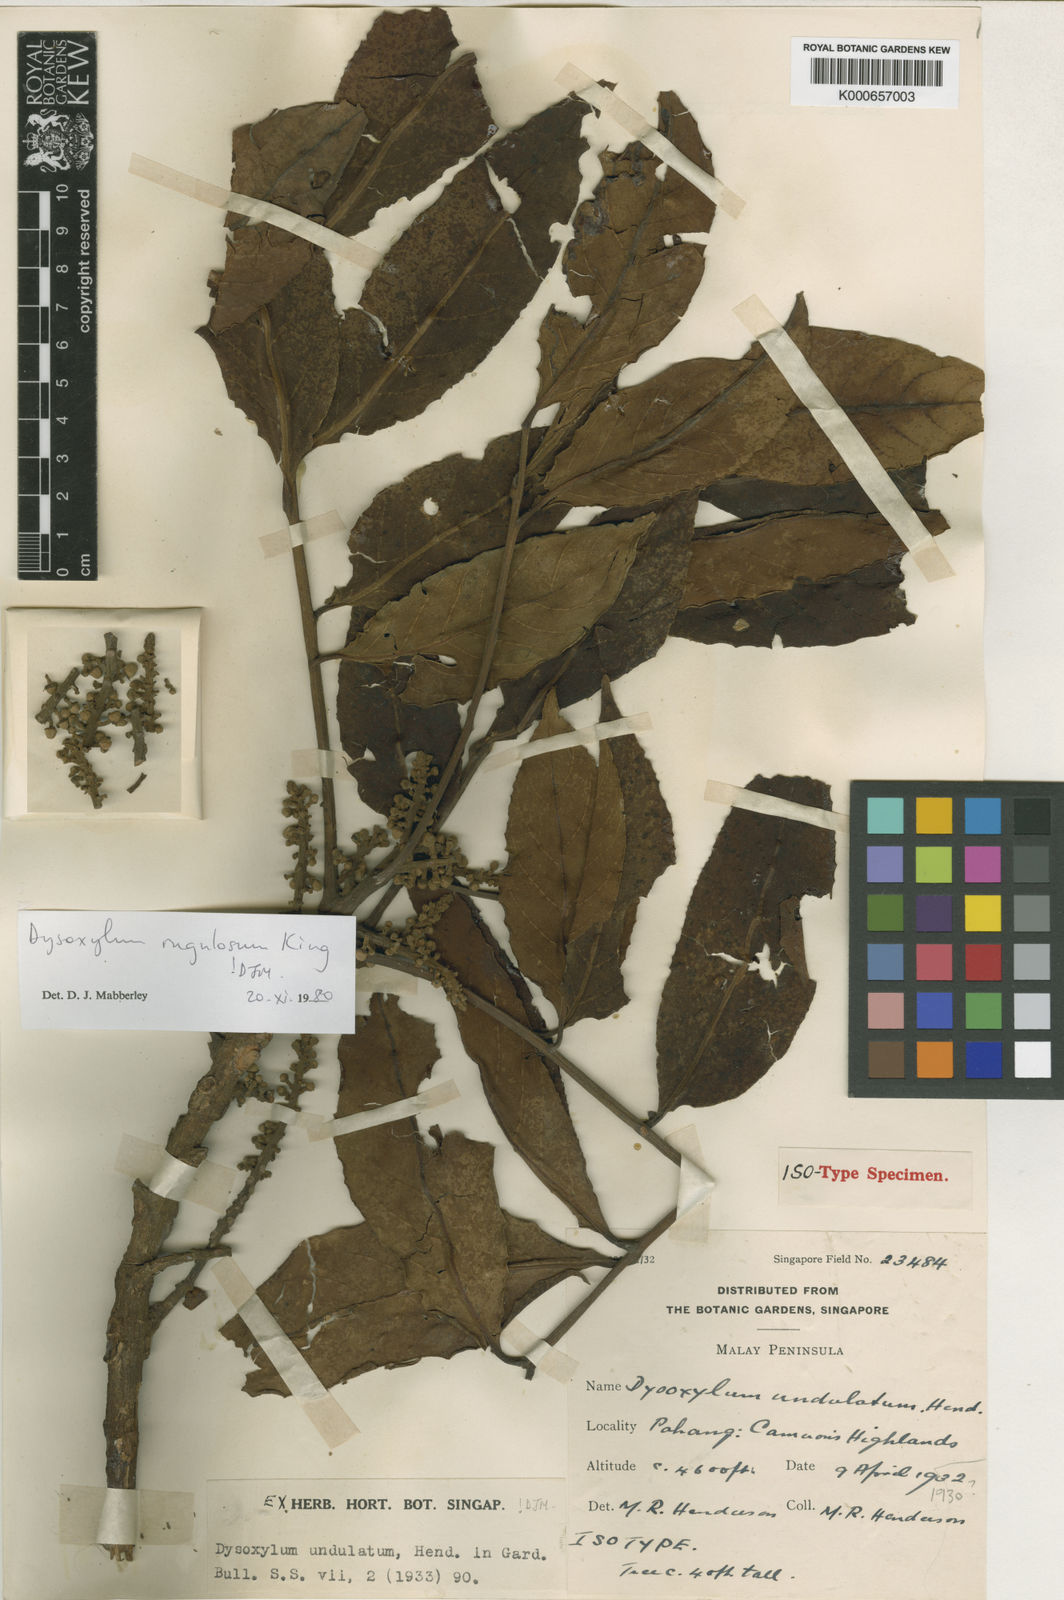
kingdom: Plantae
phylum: Tracheophyta
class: Magnoliopsida
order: Sapindales
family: Meliaceae
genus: Dysoxylum
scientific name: Dysoxylum rugulosum
